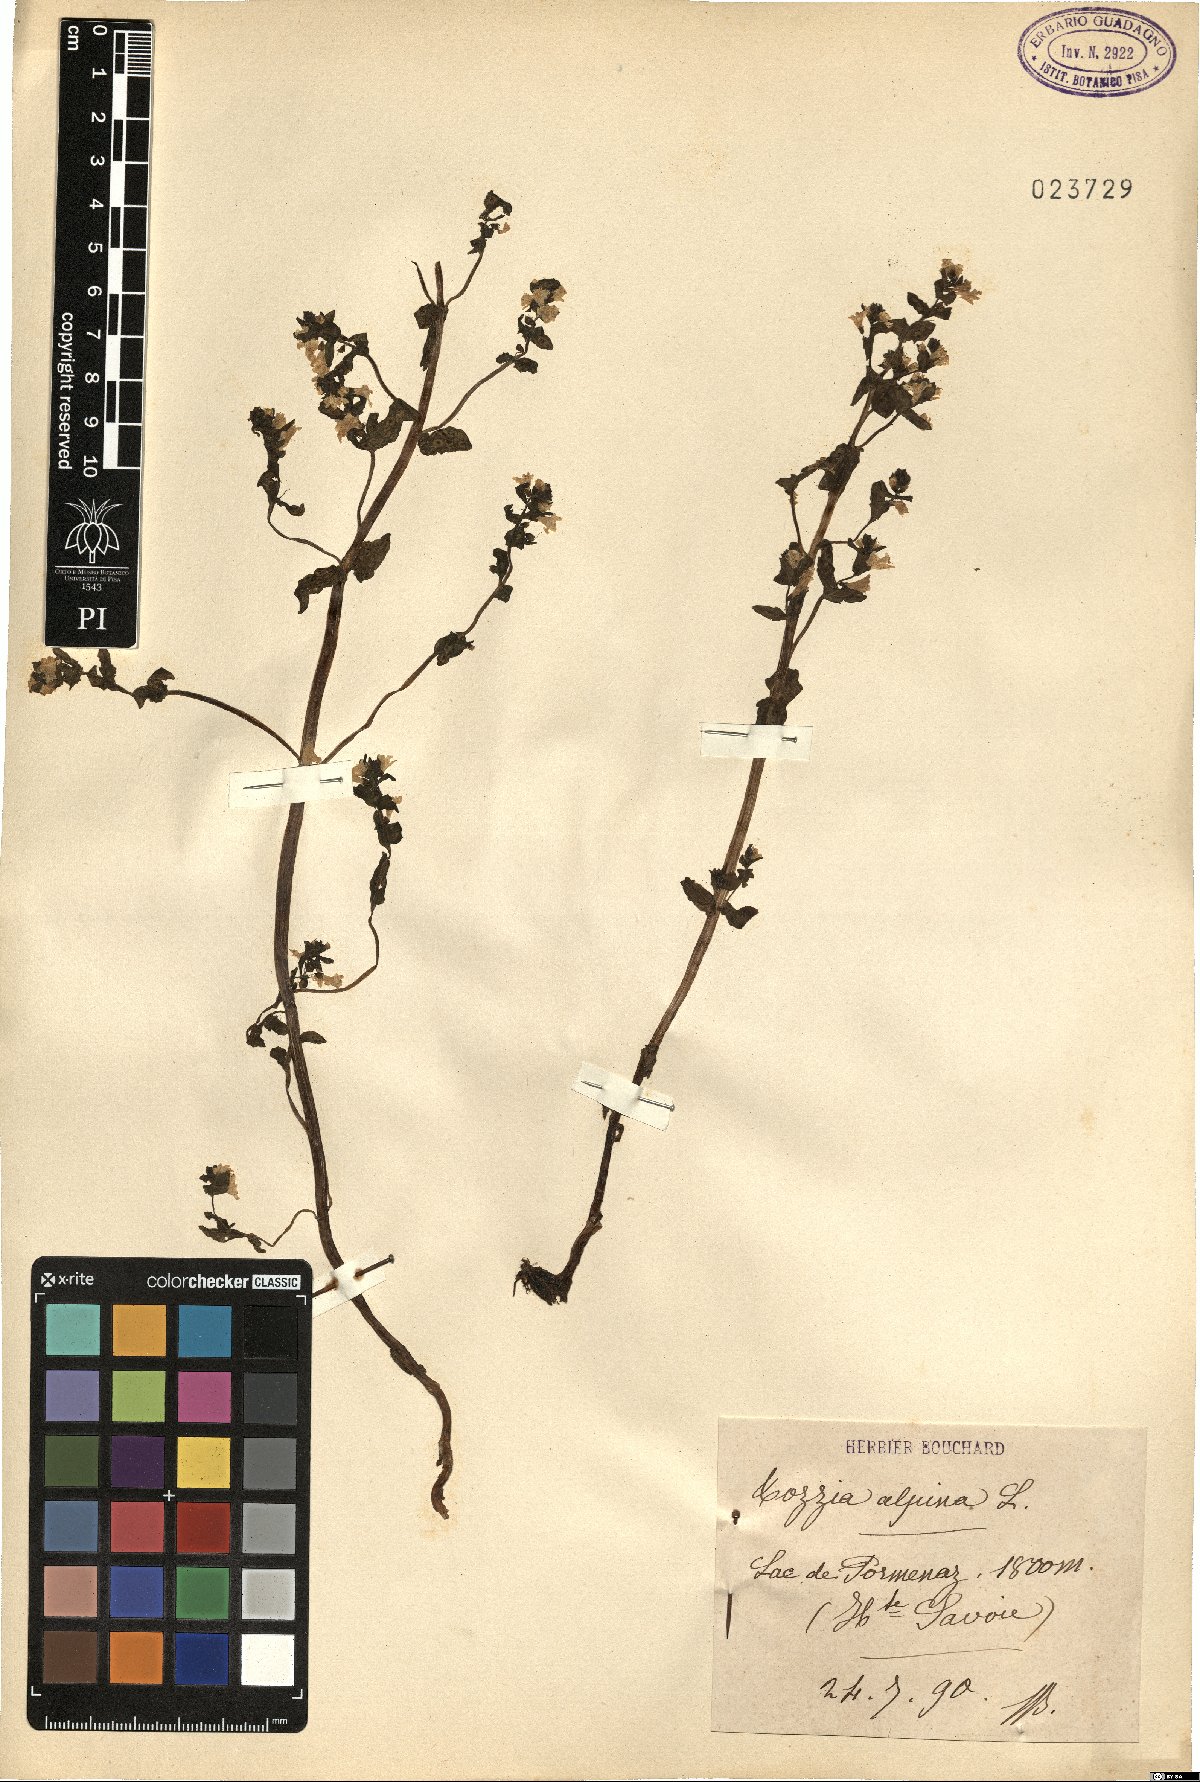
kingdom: Plantae
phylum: Tracheophyta
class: Magnoliopsida
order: Lamiales
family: Orobanchaceae
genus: Tozzia
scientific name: Tozzia alpina
